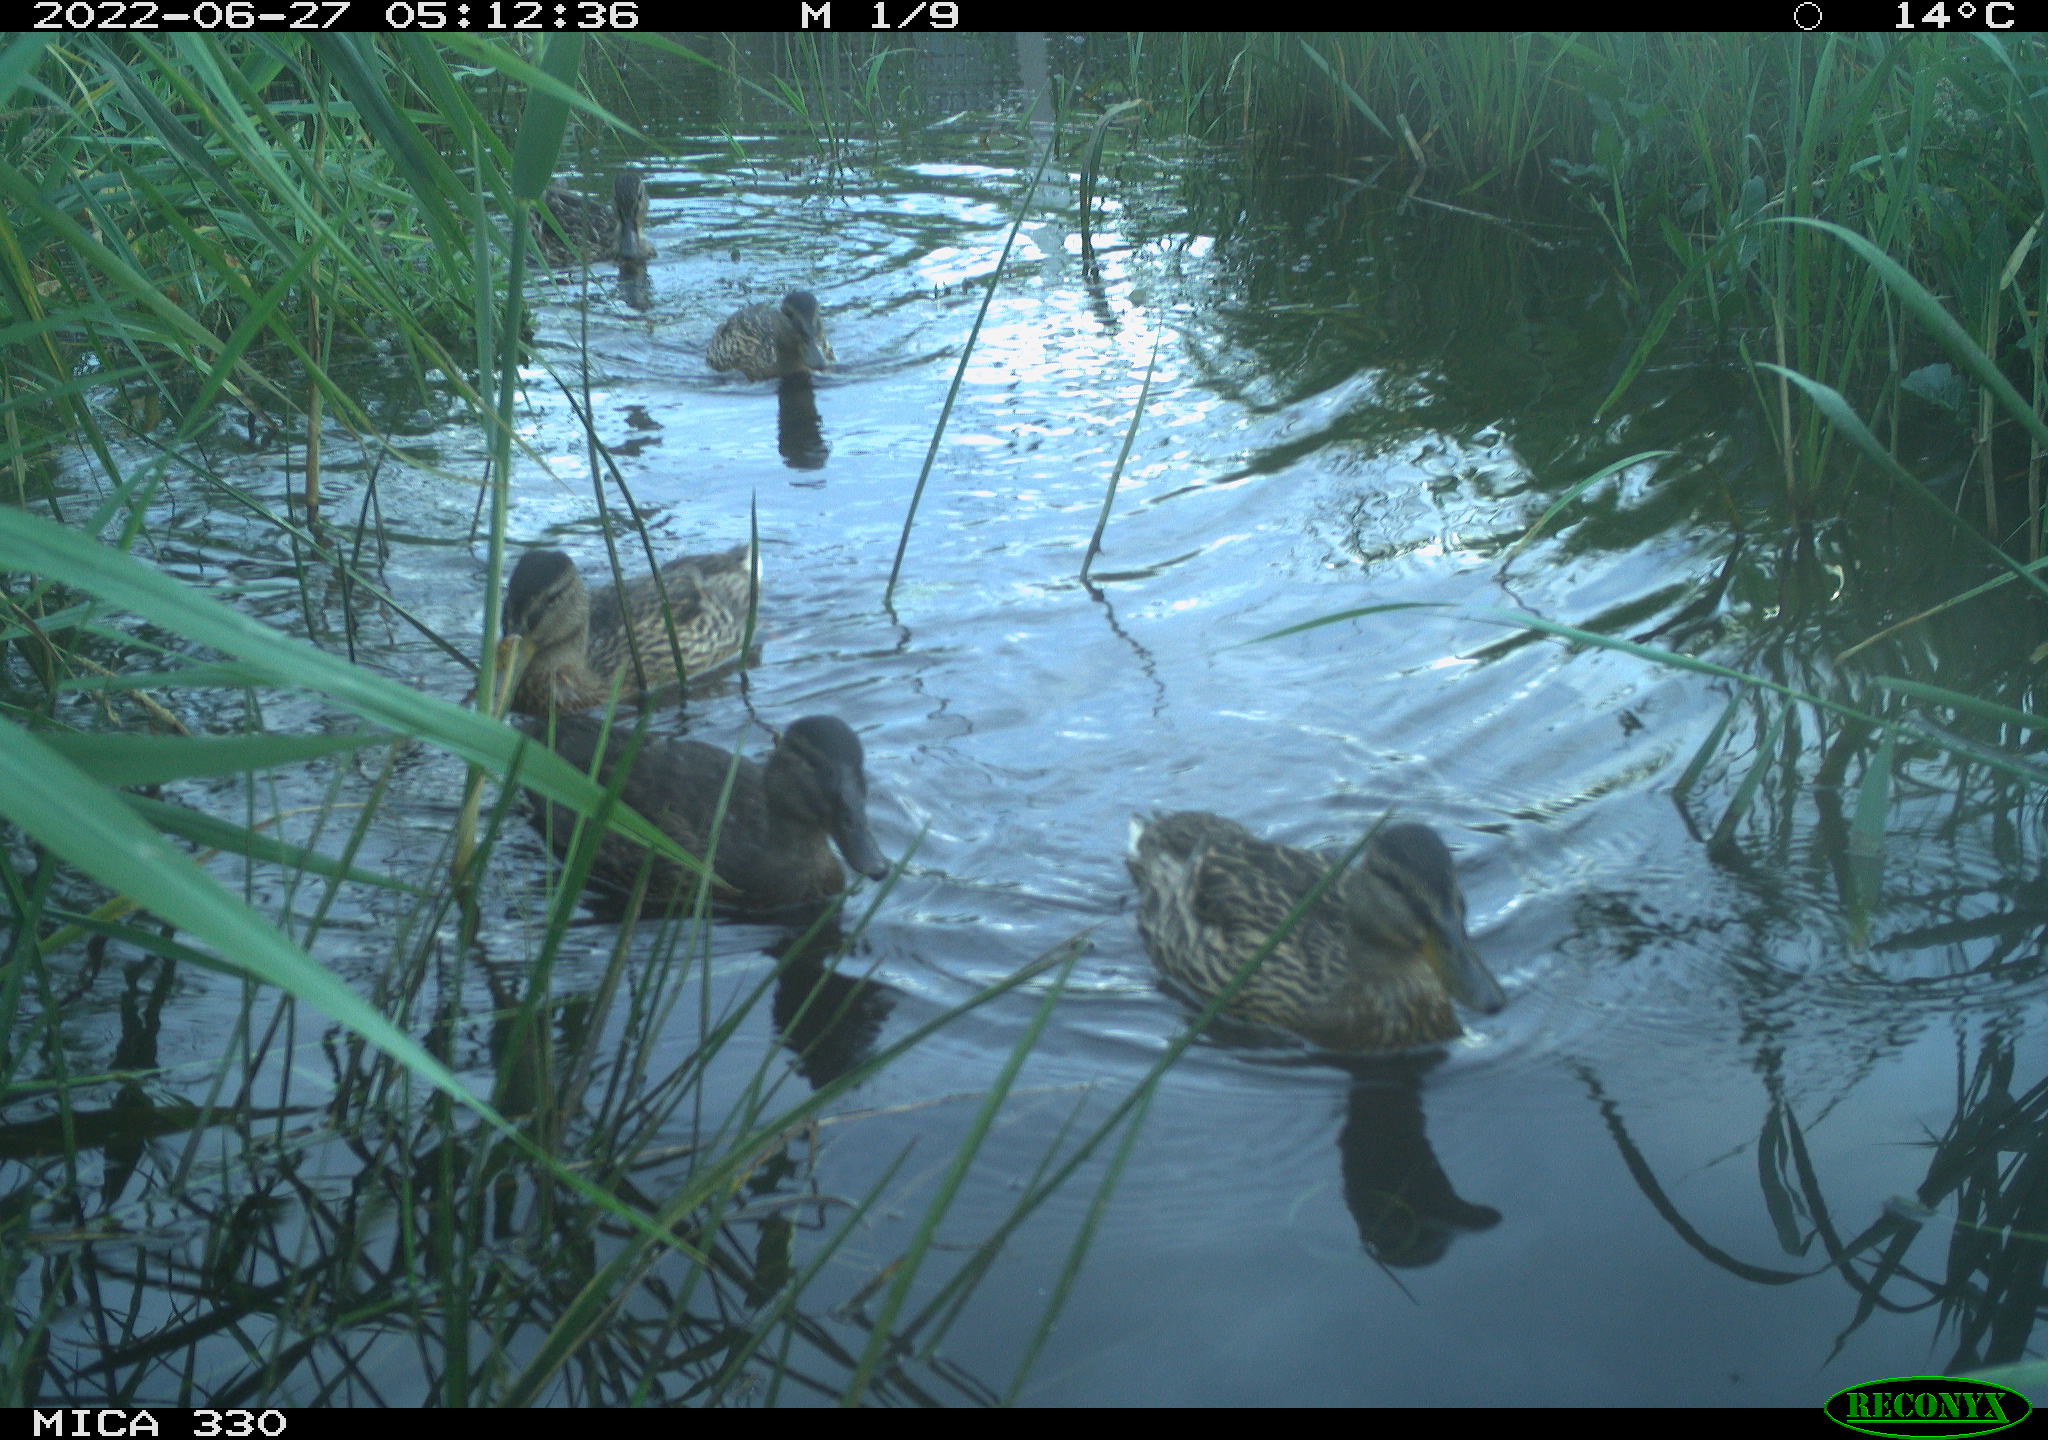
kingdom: Animalia
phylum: Chordata
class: Aves
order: Anseriformes
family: Anatidae
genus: Mareca
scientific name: Mareca strepera
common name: Gadwall
